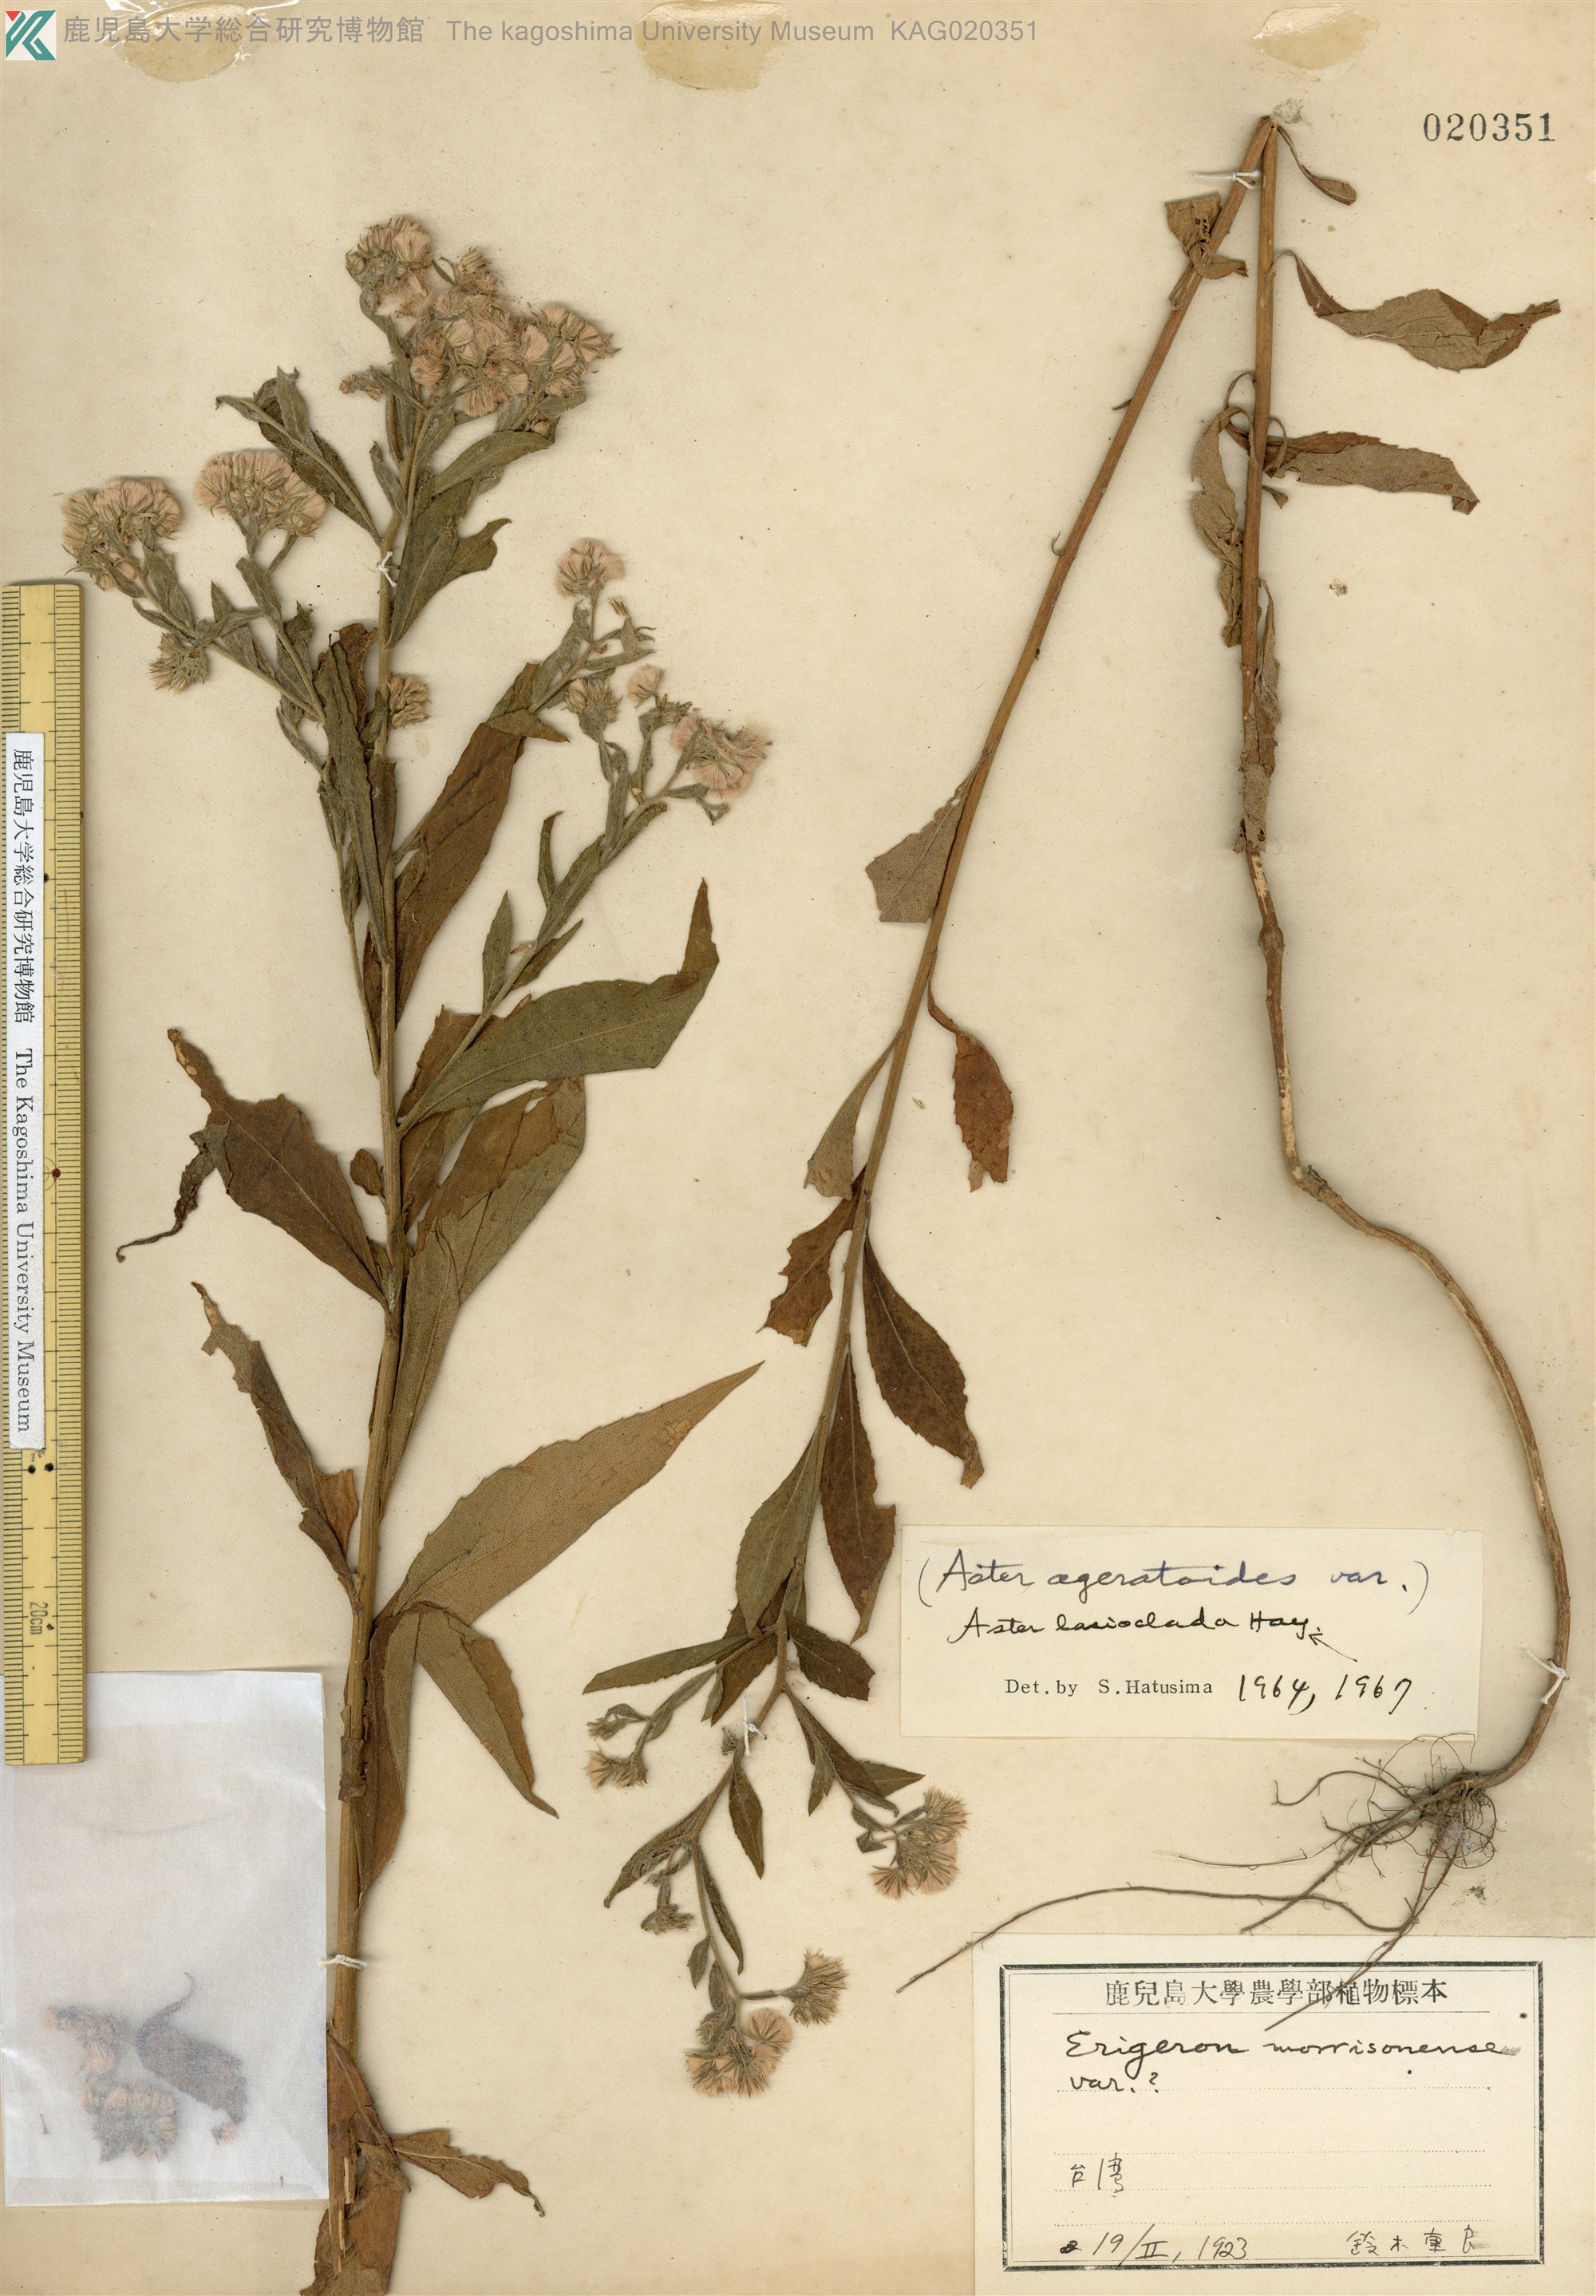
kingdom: Plantae
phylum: Tracheophyta
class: Magnoliopsida
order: Asterales
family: Asteraceae
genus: Aster
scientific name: Aster ageratoides
